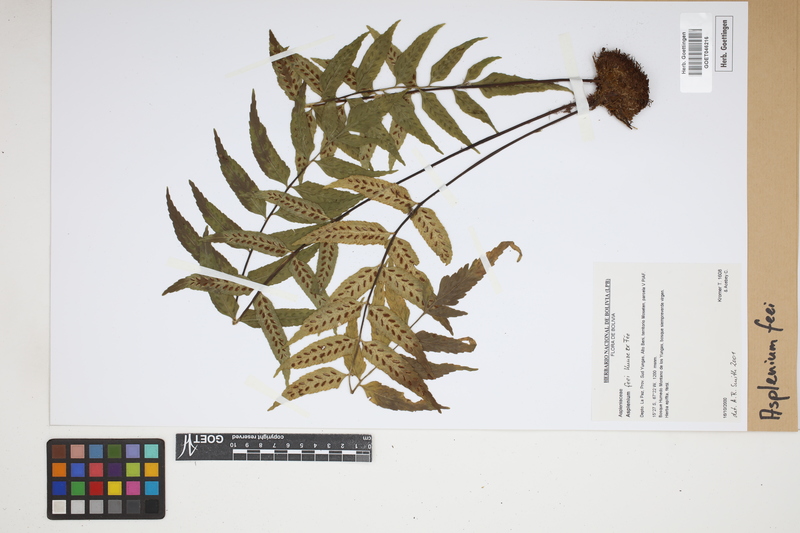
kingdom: Plantae
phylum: Tracheophyta
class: Polypodiopsida
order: Polypodiales
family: Aspleniaceae
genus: Asplenium
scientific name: Asplenium feei
